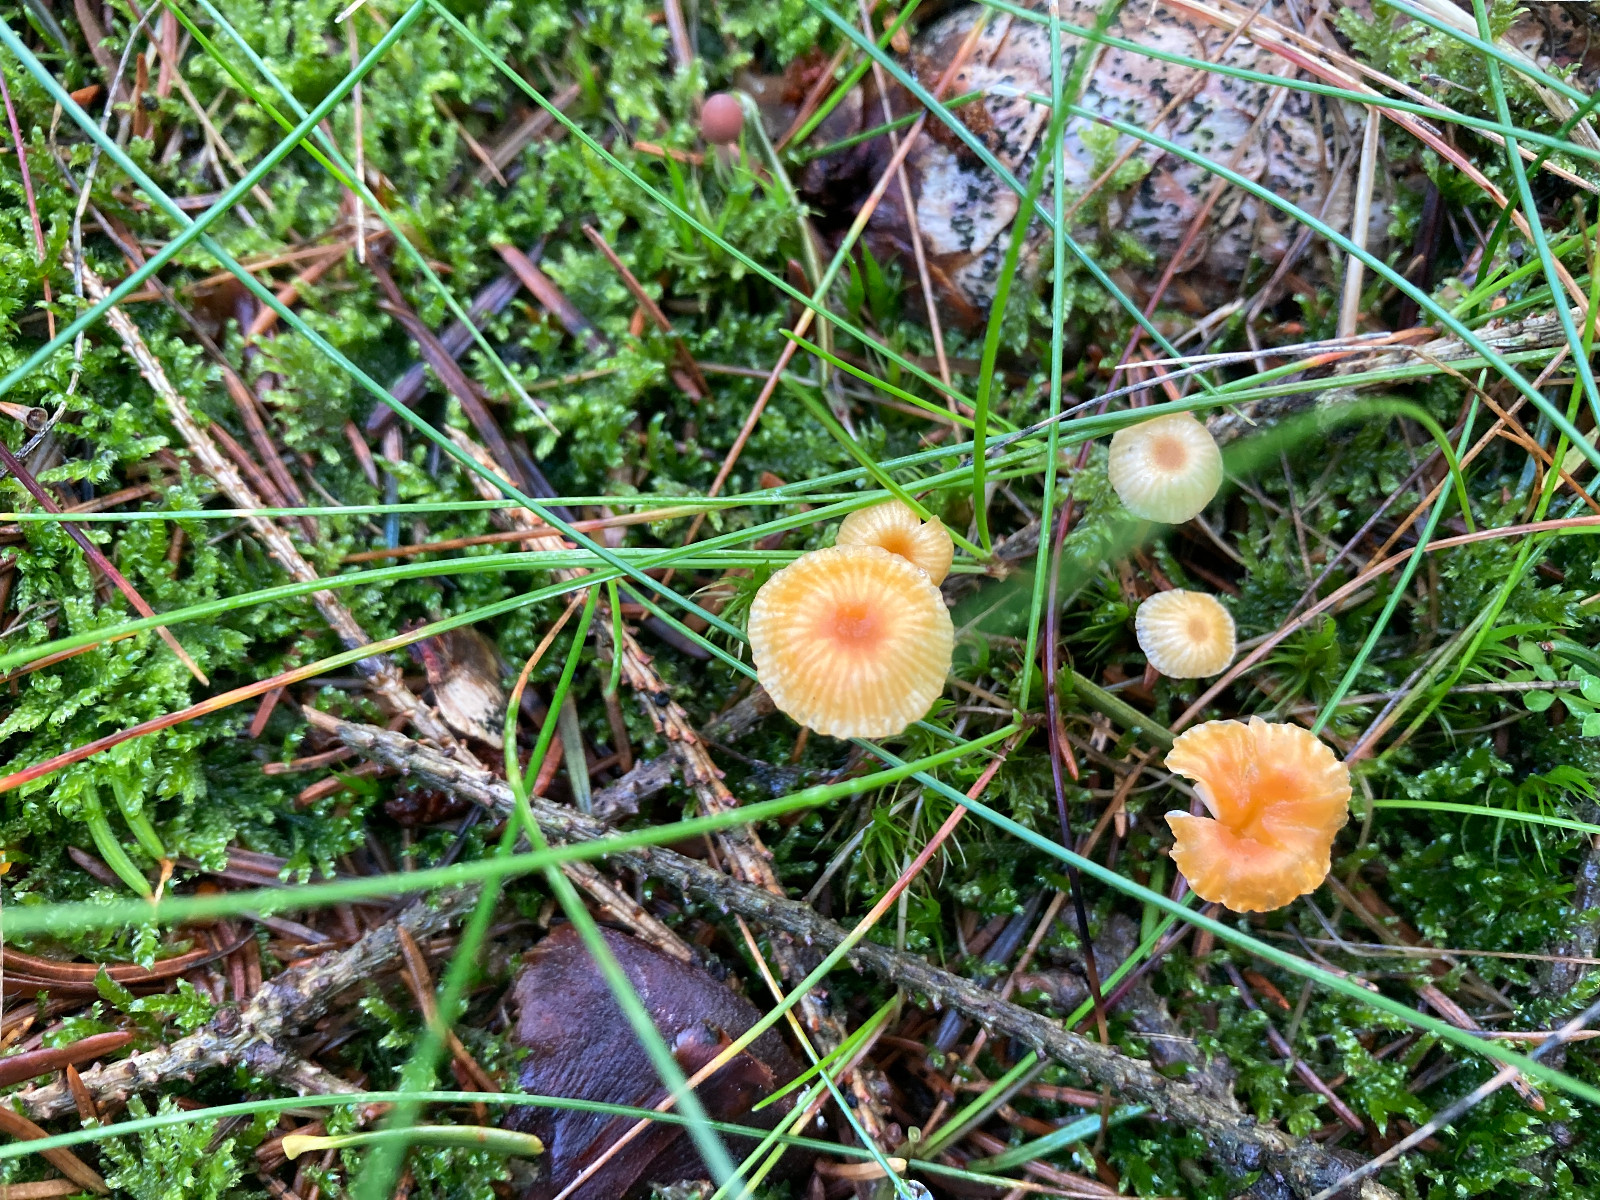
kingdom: Fungi
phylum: Basidiomycota
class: Agaricomycetes
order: Hymenochaetales
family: Rickenellaceae
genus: Rickenella
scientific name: Rickenella fibula
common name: orange mosnavlehat
